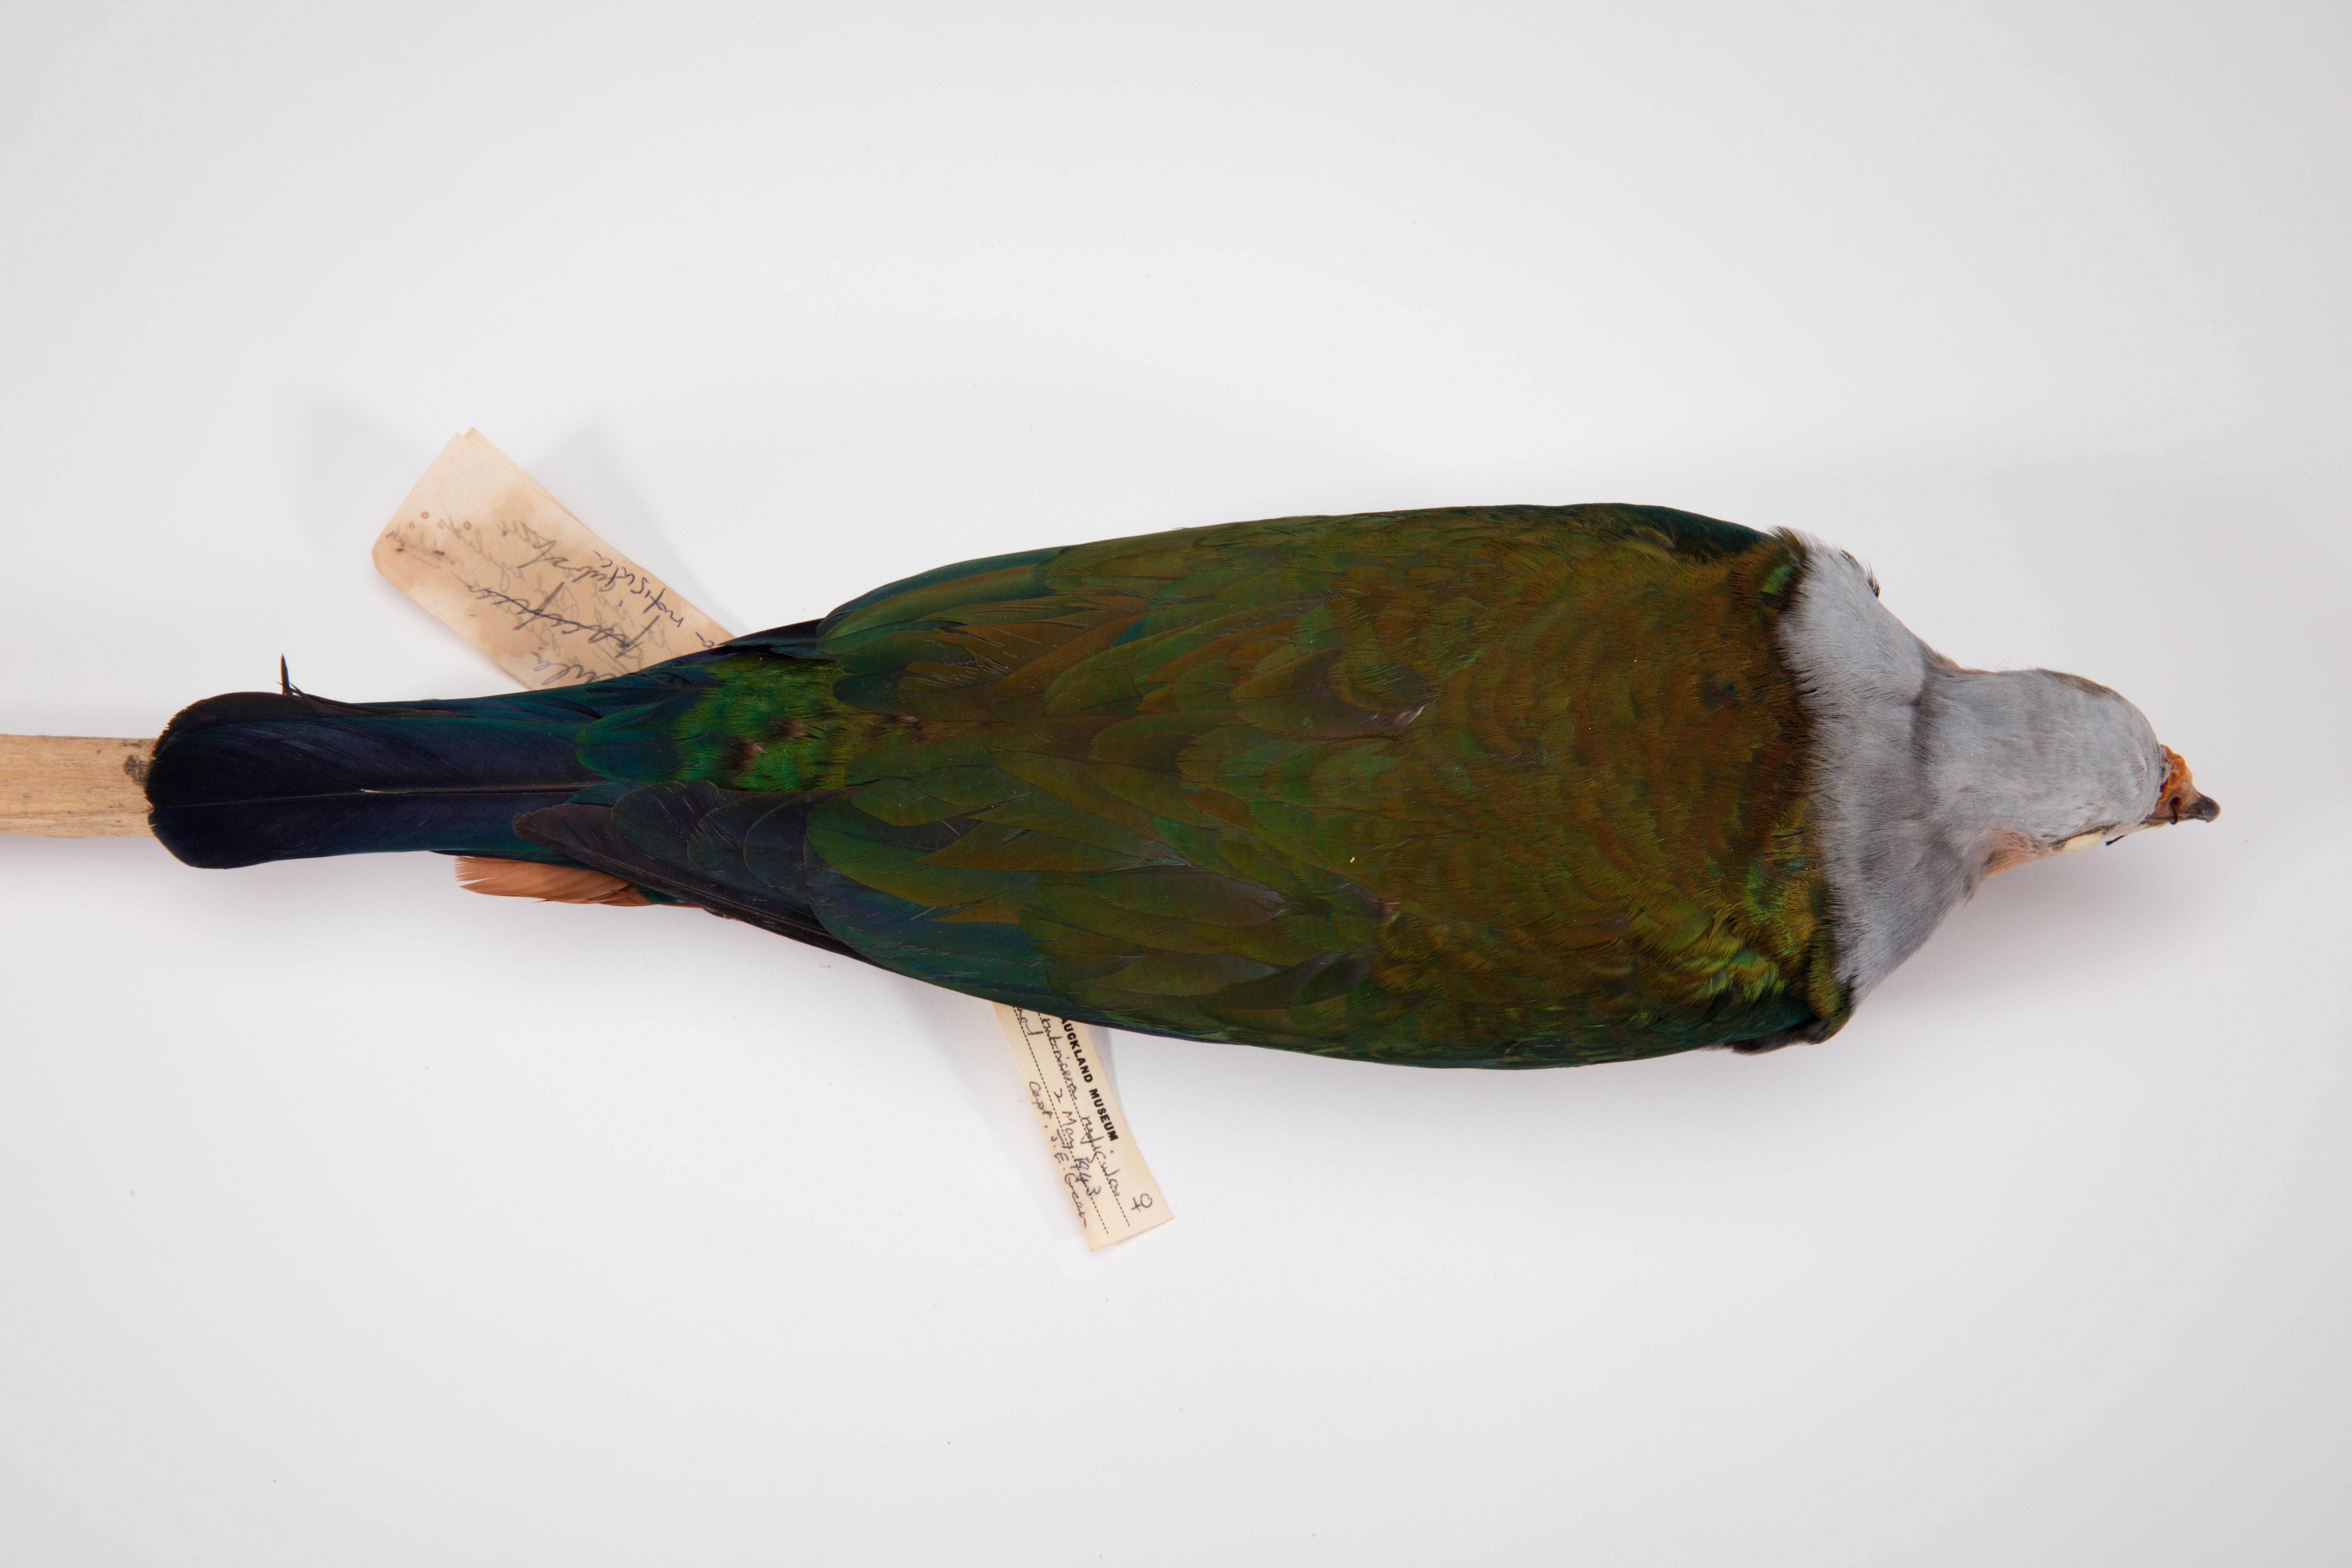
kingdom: Animalia
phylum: Chordata
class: Aves
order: Columbiformes
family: Columbidae
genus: Ducula
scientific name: Ducula rubricera
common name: Red-knobbed imperial pigeon
